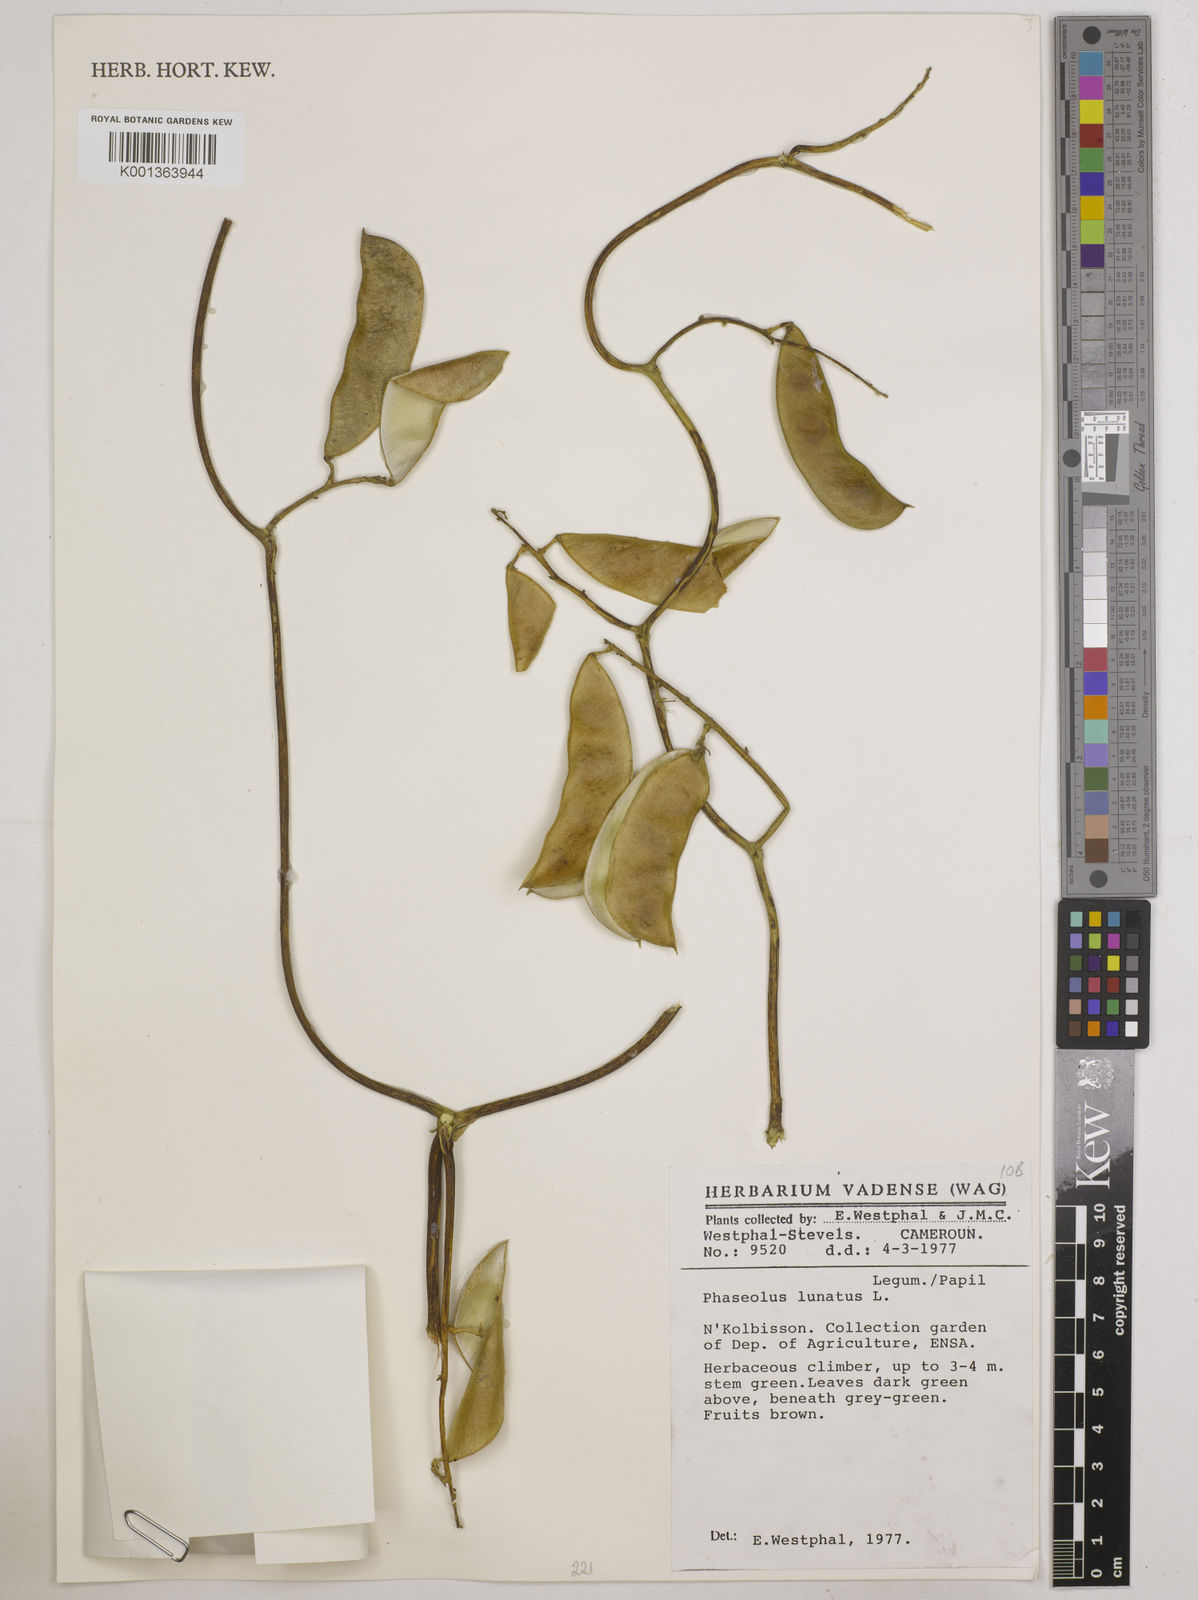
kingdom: Plantae
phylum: Tracheophyta
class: Magnoliopsida
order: Fabales
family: Fabaceae
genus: Phaseolus
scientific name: Phaseolus lunatus
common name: Sieva bean
